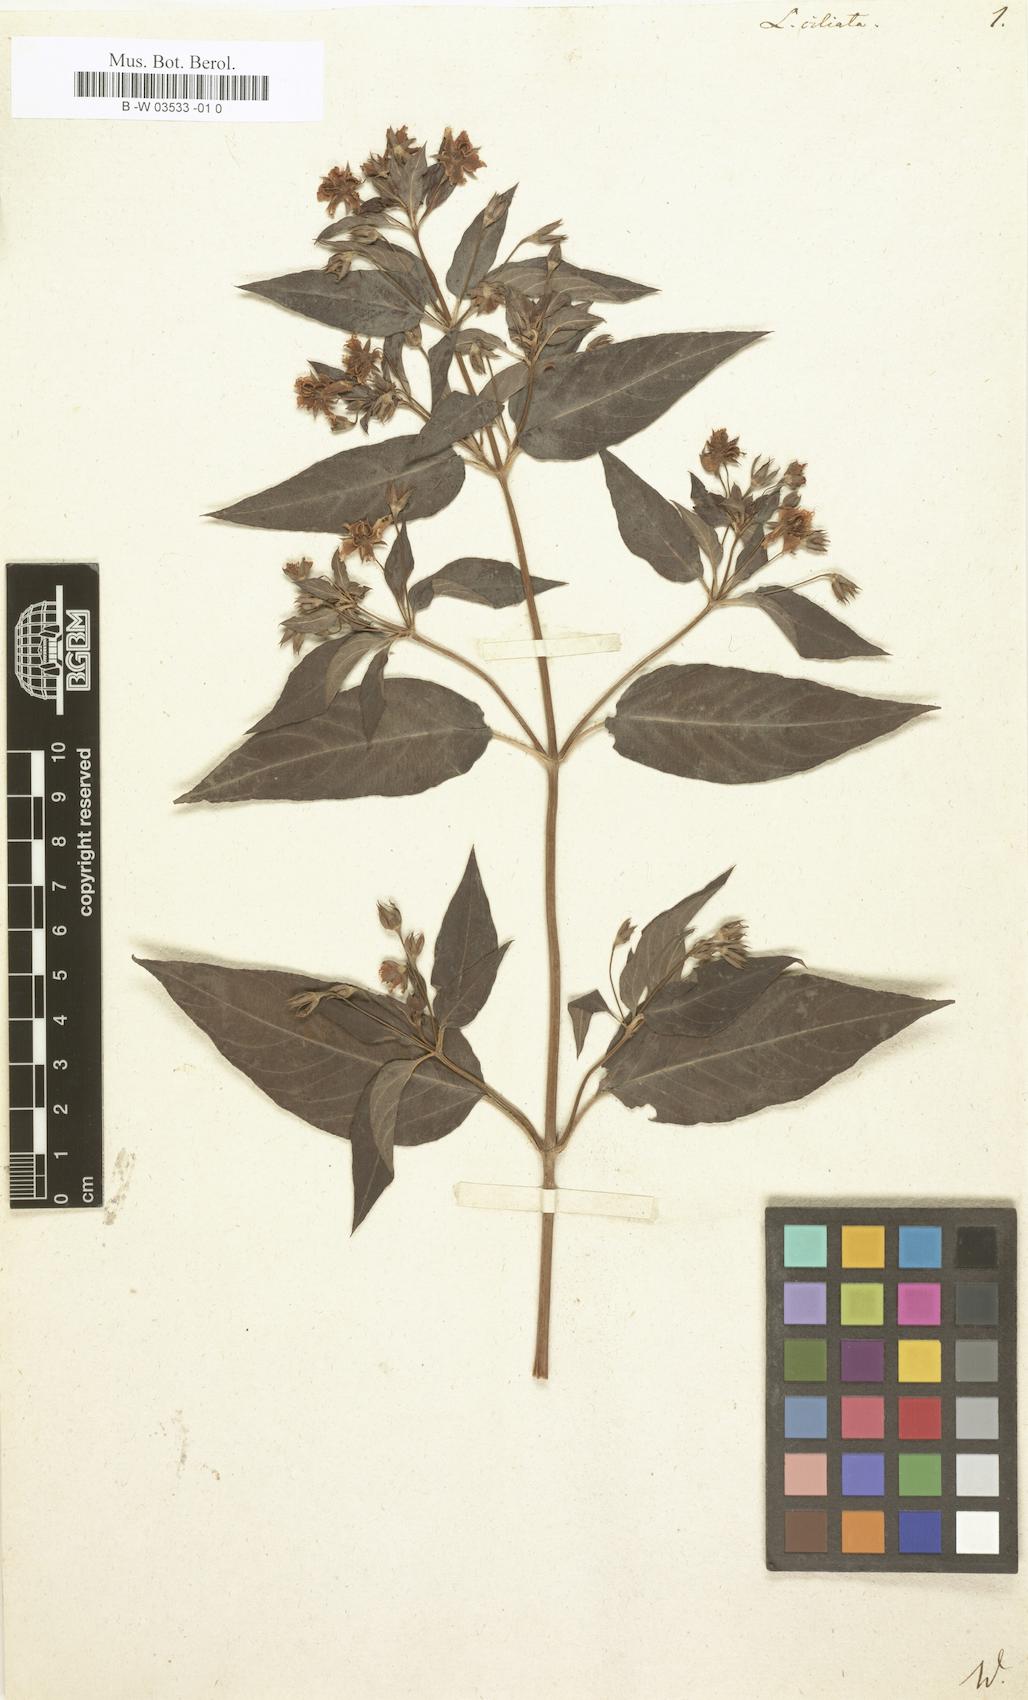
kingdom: Plantae
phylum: Tracheophyta
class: Magnoliopsida
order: Ericales
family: Primulaceae
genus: Lysimachia
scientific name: Lysimachia quadrifolia
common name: Whorled loosestrife
